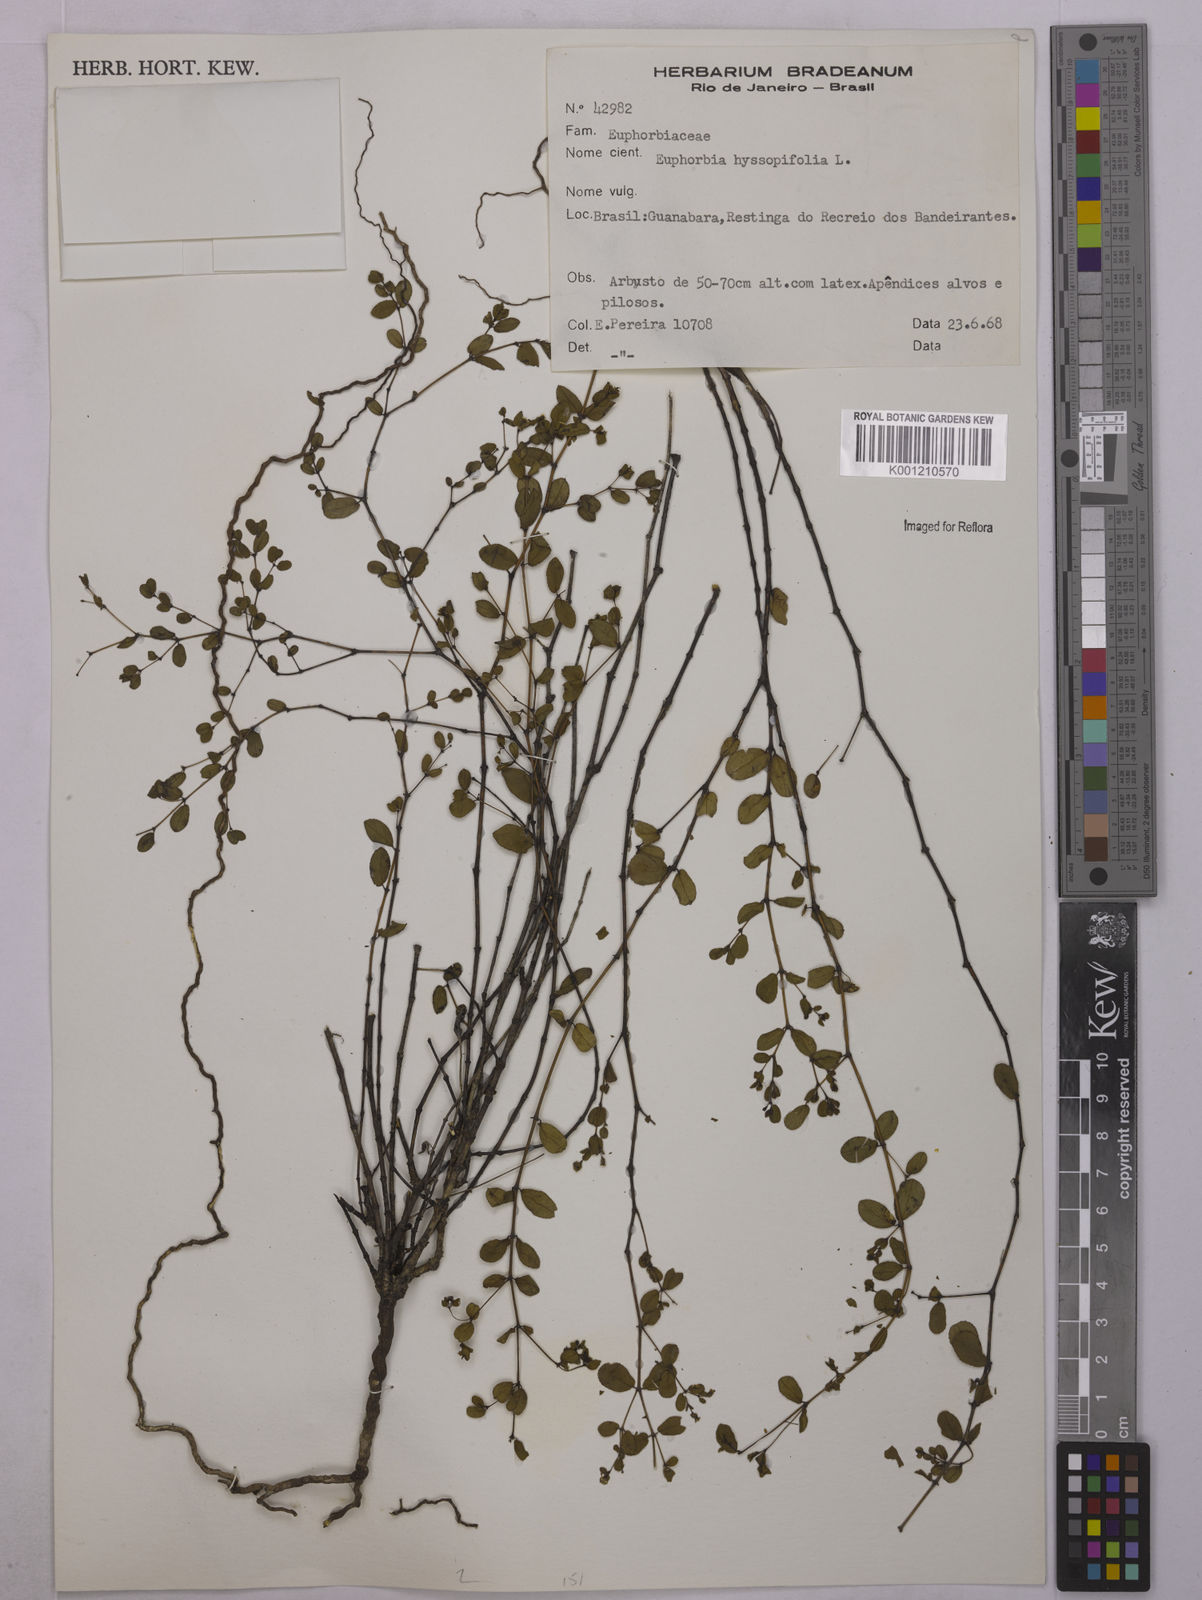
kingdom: Plantae
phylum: Tracheophyta
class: Magnoliopsida
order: Malpighiales
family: Euphorbiaceae
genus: Euphorbia
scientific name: Euphorbia hyssopifolia
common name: Hyssopleaf sandmat
